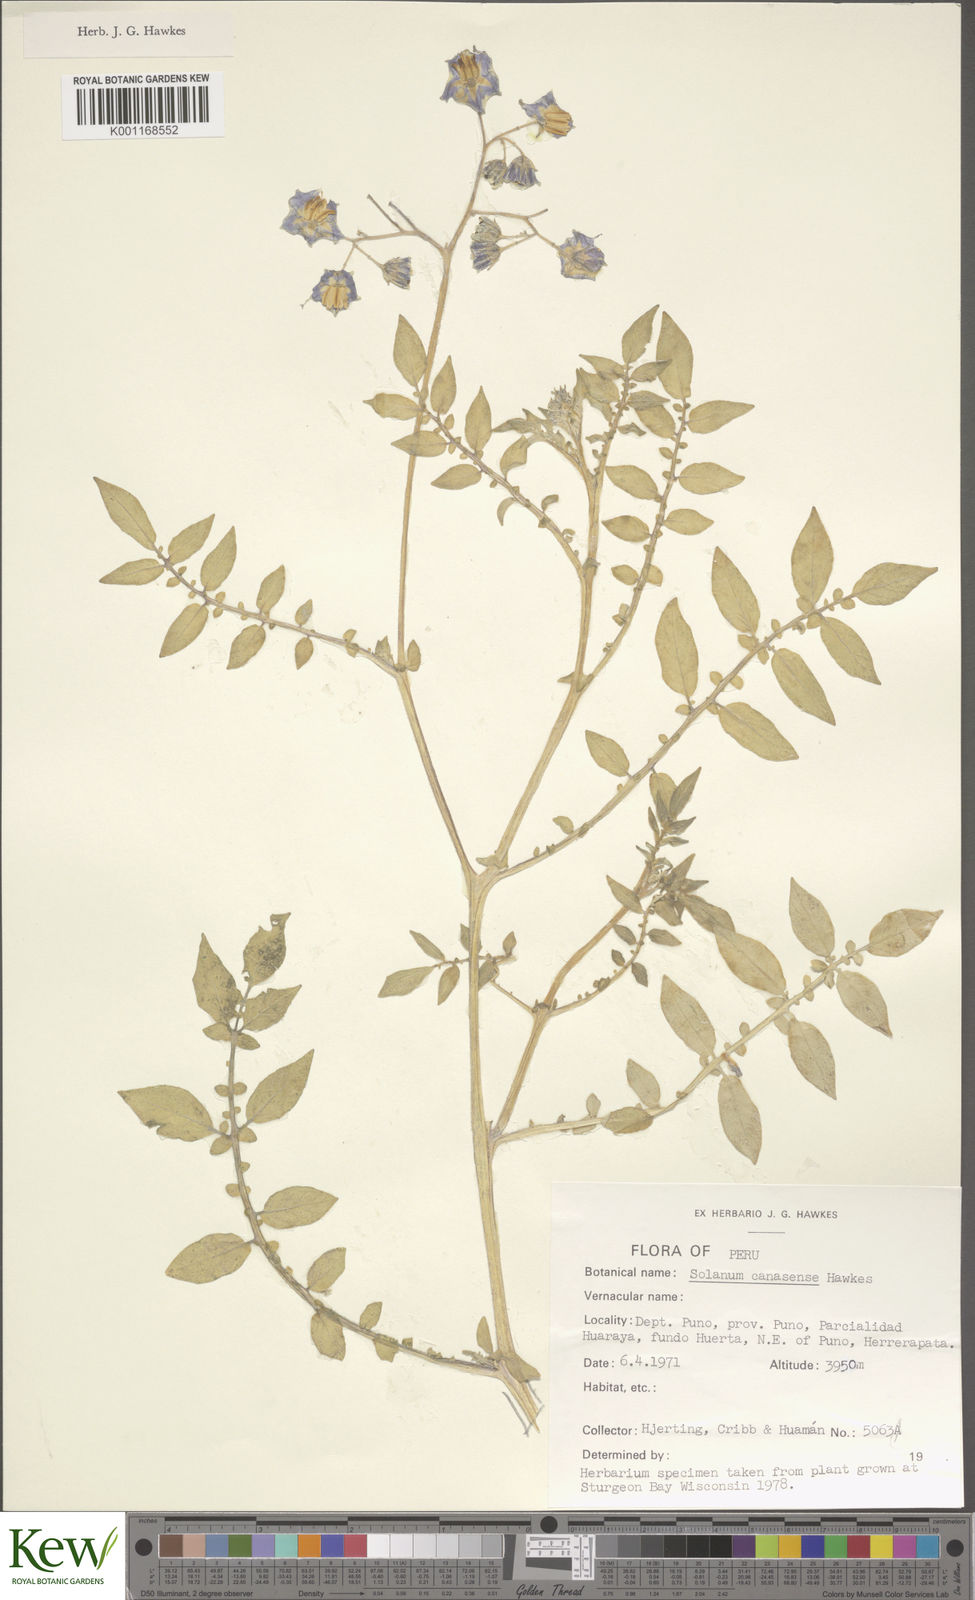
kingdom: Plantae
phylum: Tracheophyta
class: Magnoliopsida
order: Solanales
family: Solanaceae
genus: Solanum
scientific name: Solanum candolleanum
